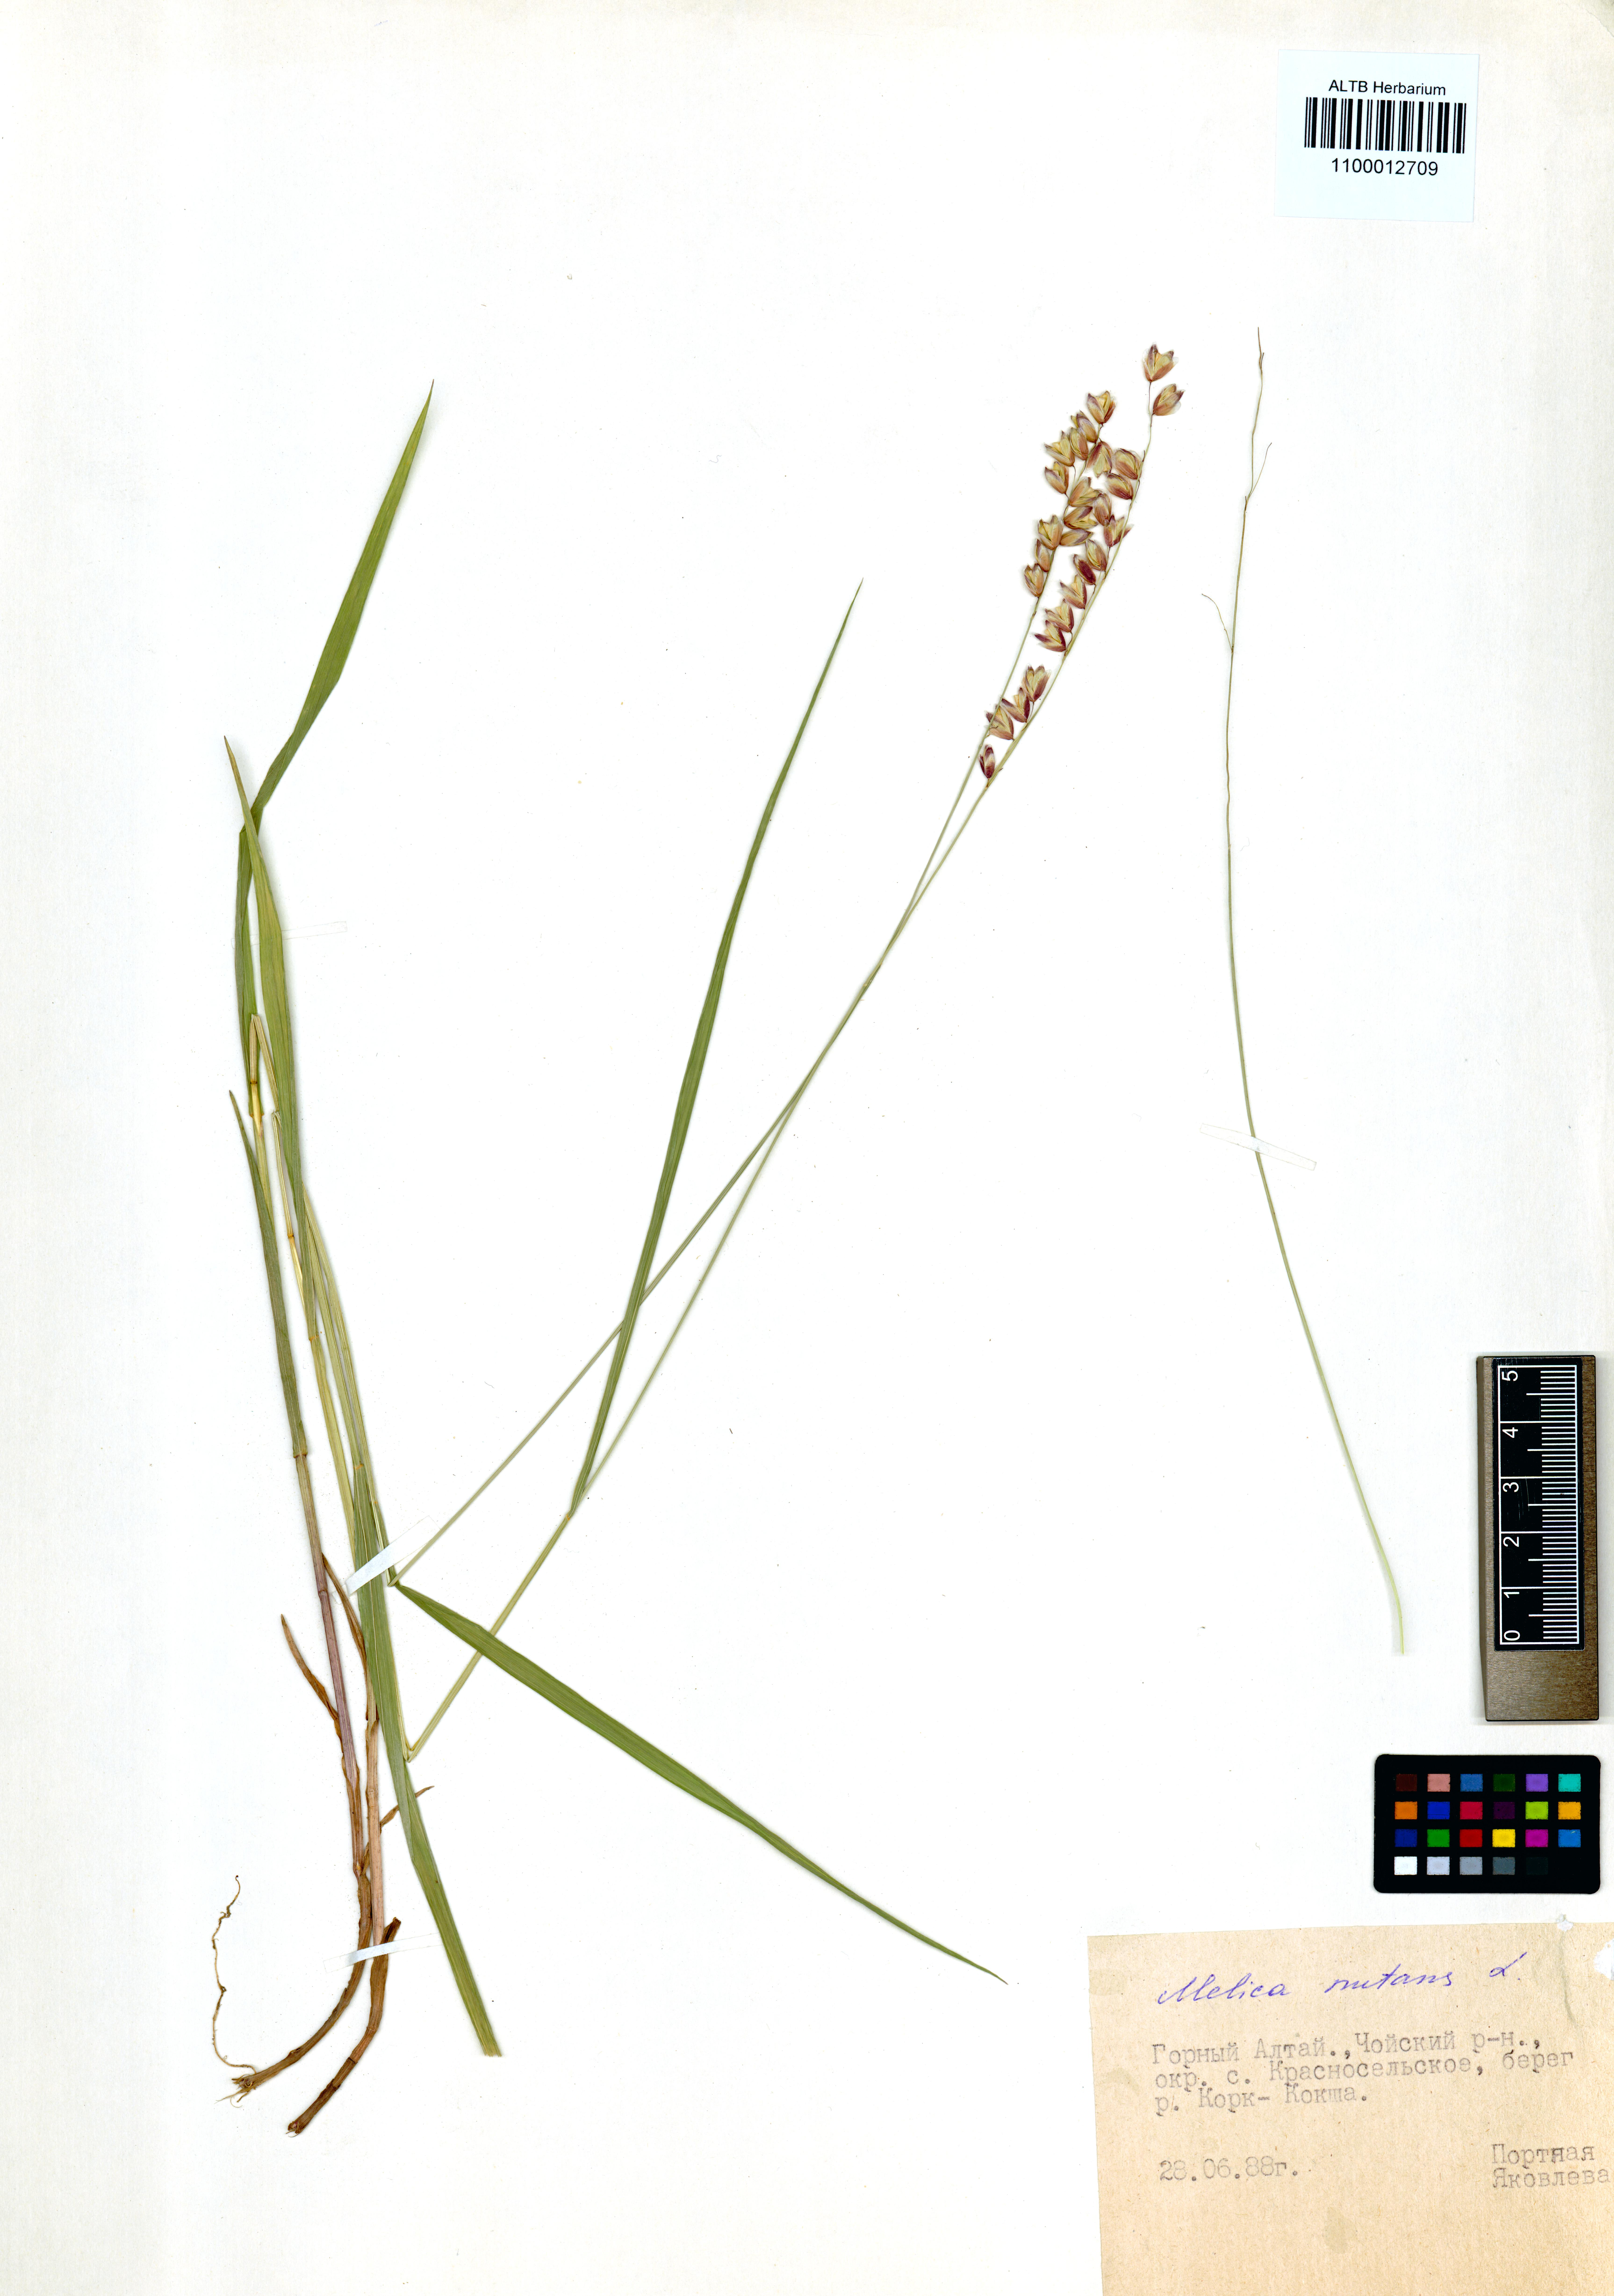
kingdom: Plantae
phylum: Tracheophyta
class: Liliopsida
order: Poales
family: Poaceae
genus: Melica
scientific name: Melica nutans
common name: Mountain melick
